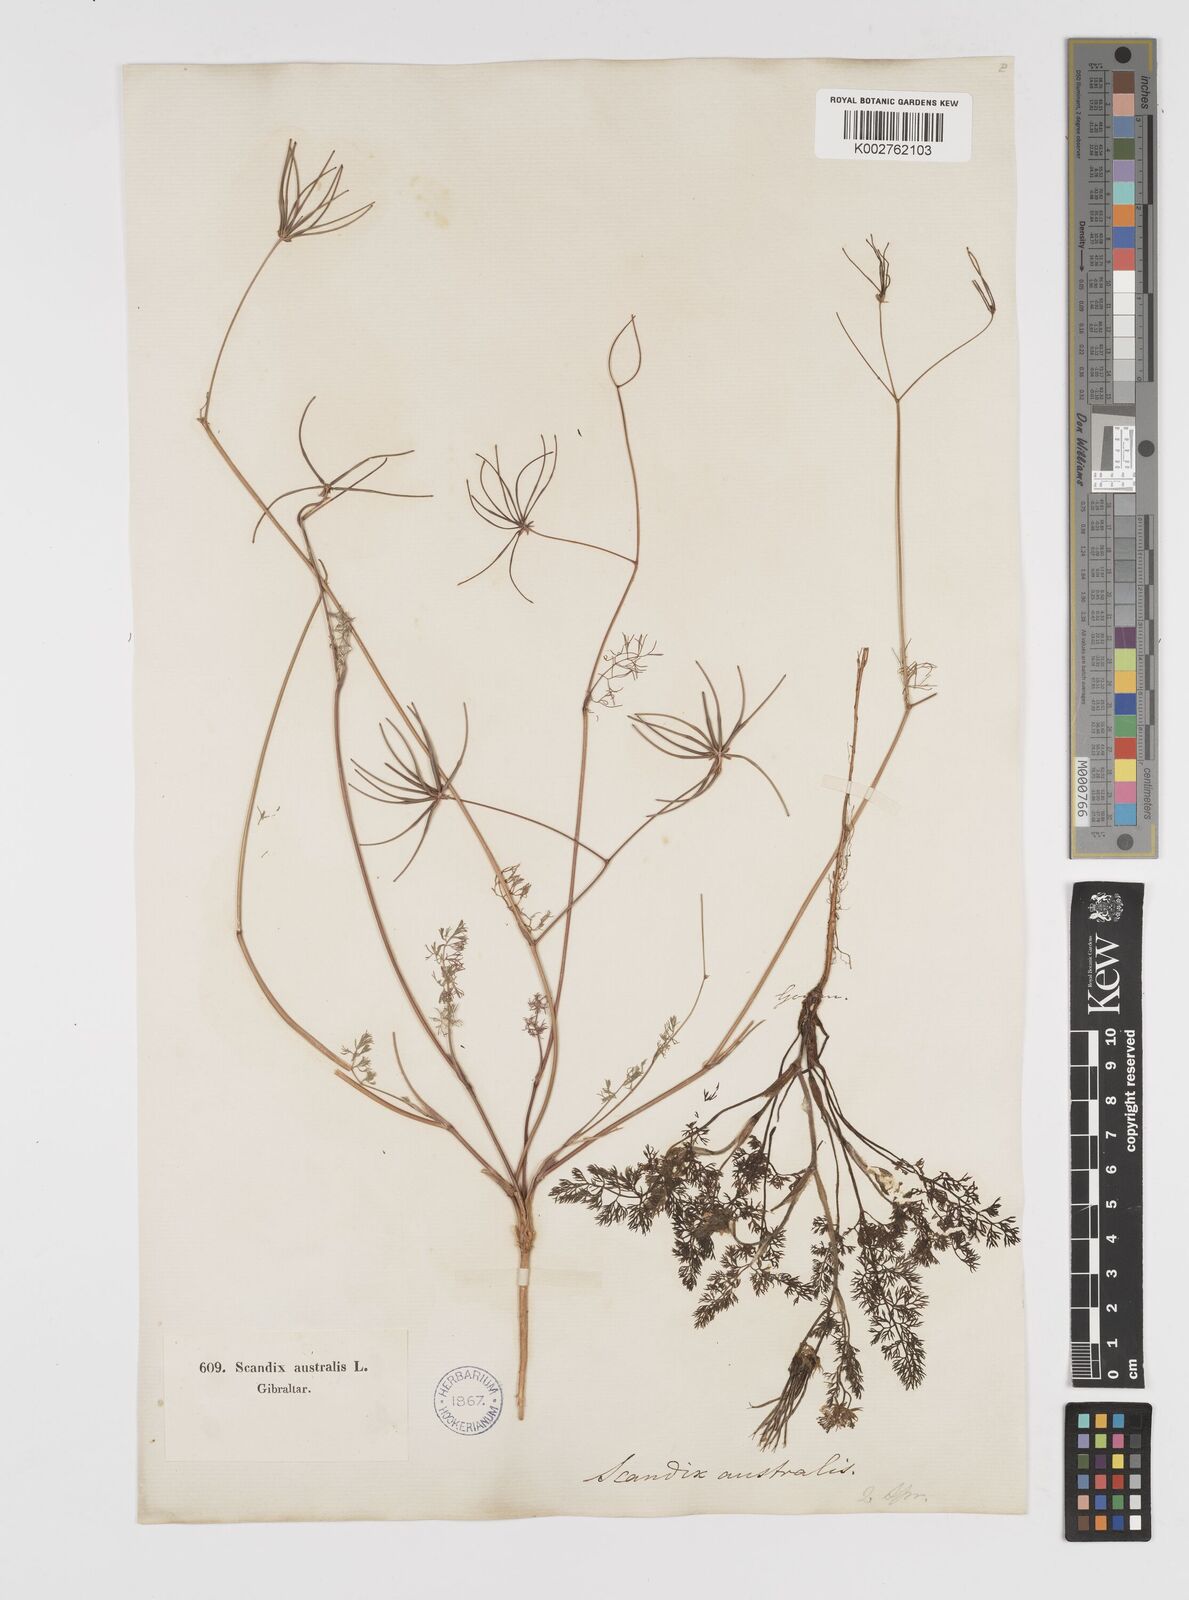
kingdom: Plantae
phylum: Tracheophyta
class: Magnoliopsida
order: Apiales
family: Apiaceae
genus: Scandix
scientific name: Scandix australis
